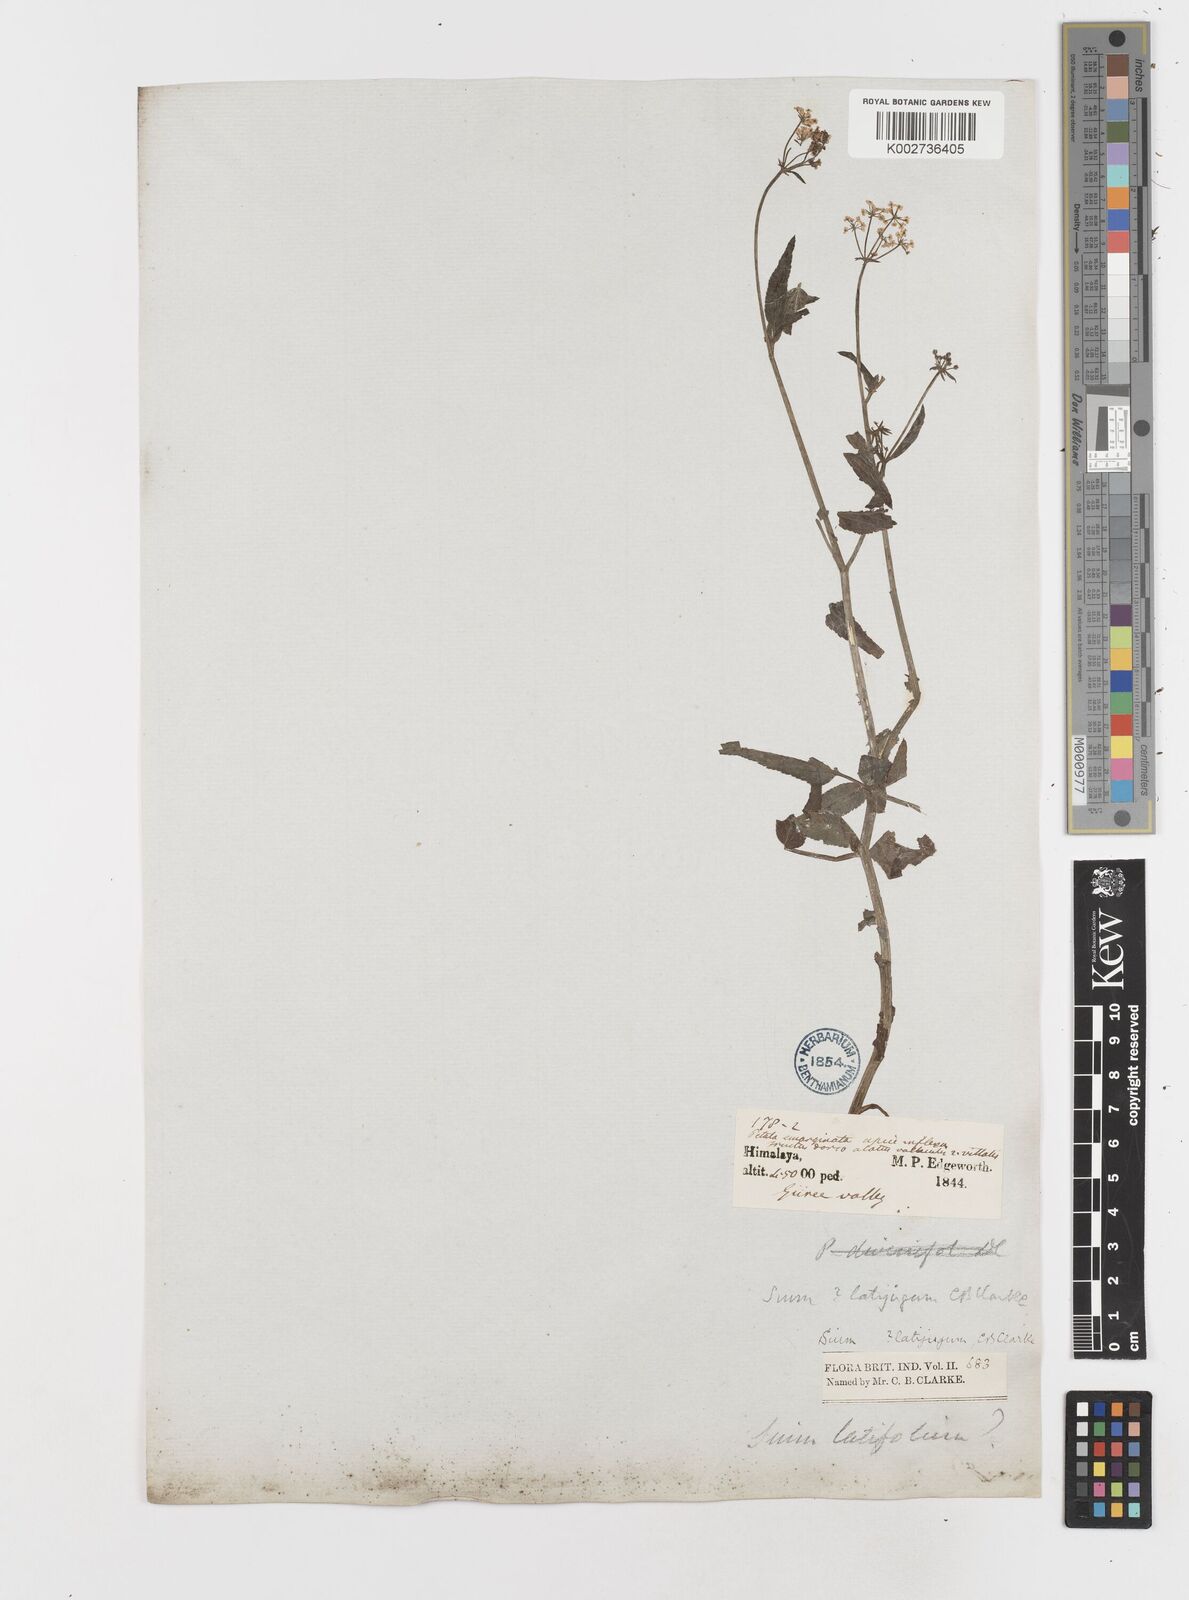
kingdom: Plantae
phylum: Tracheophyta
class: Magnoliopsida
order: Apiales
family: Apiaceae
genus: Sium
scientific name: Sium sisarum
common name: Skirret
